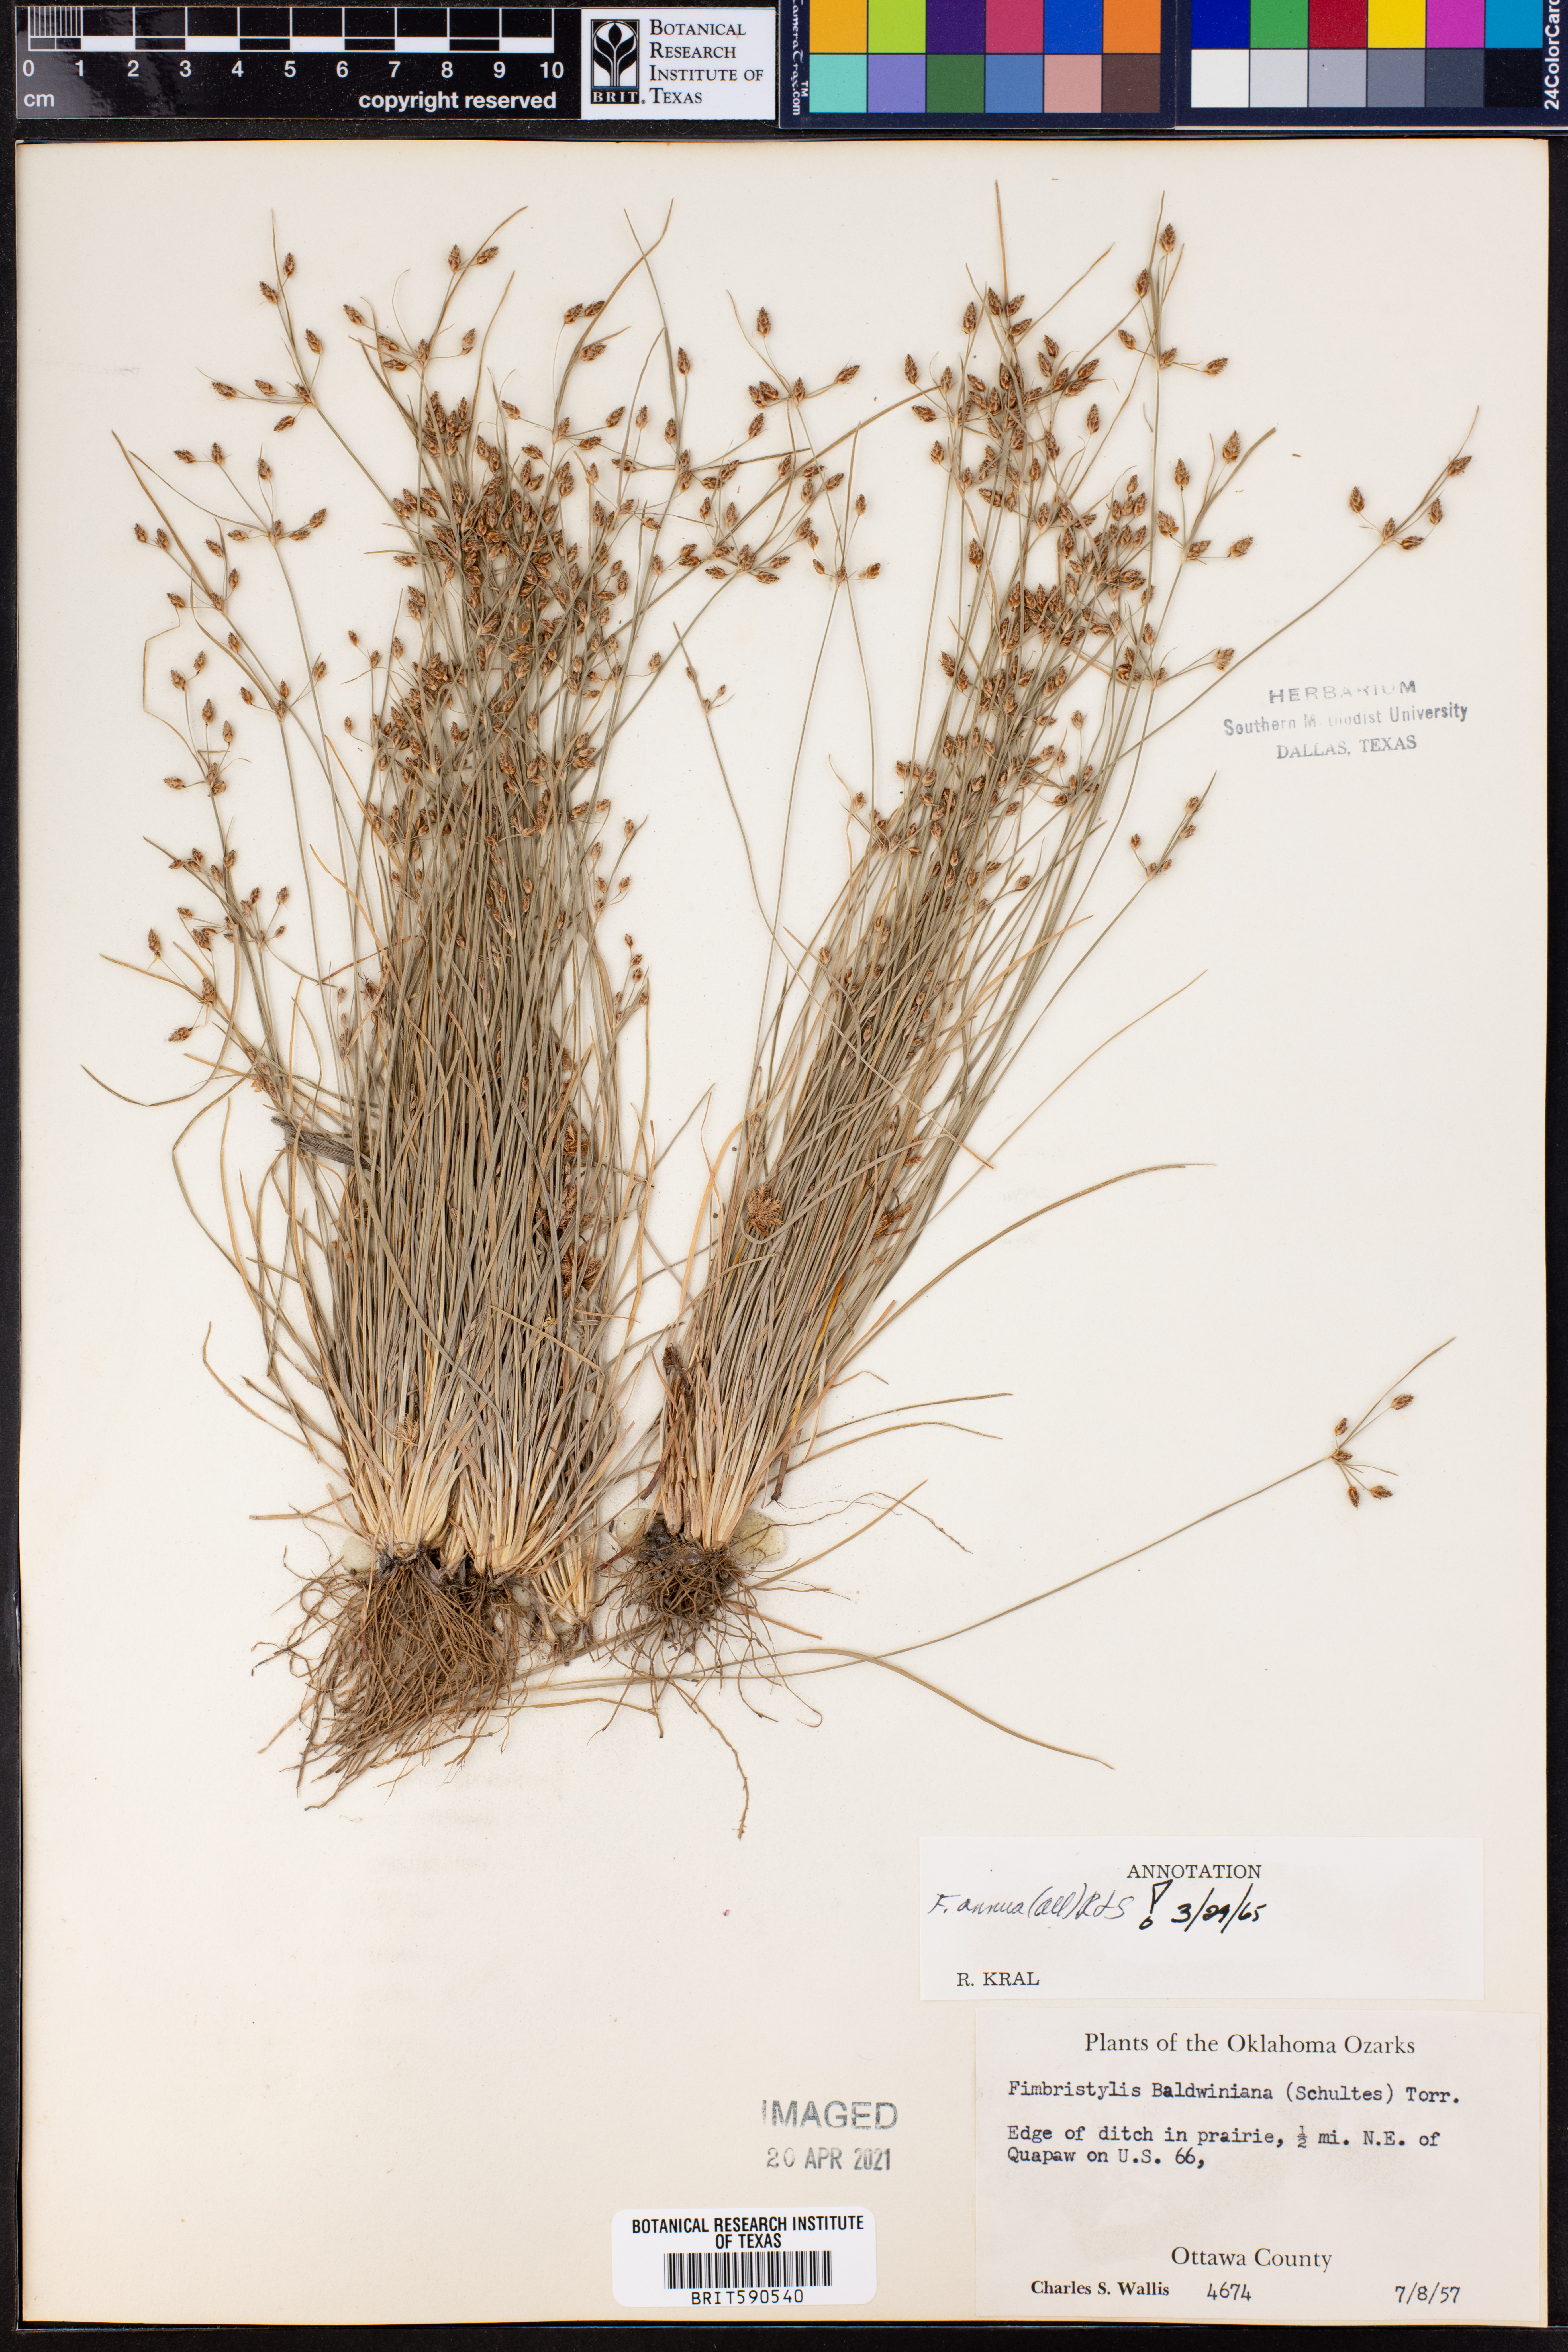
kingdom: Plantae
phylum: Tracheophyta
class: Liliopsida
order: Poales
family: Cyperaceae
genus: Fimbristylis
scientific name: Fimbristylis dichotoma
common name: Forked fimbry
